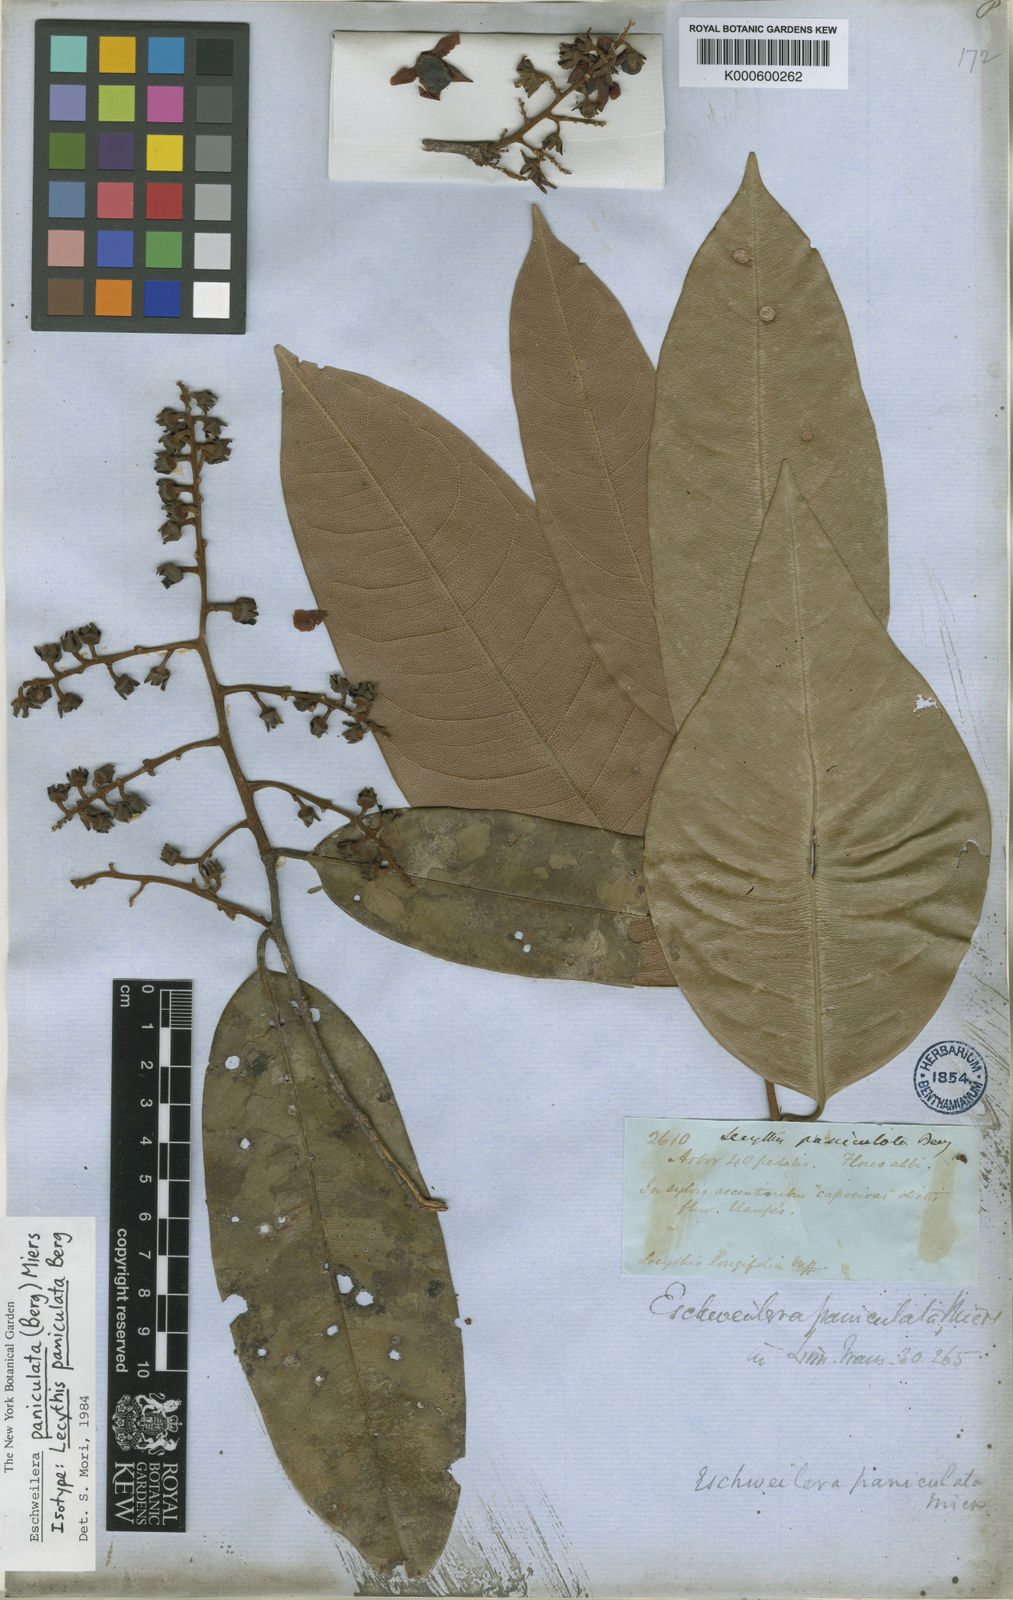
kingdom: Plantae
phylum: Tracheophyta
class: Magnoliopsida
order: Ericales
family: Lecythidaceae
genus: Eschweilera
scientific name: Eschweilera paniculata
